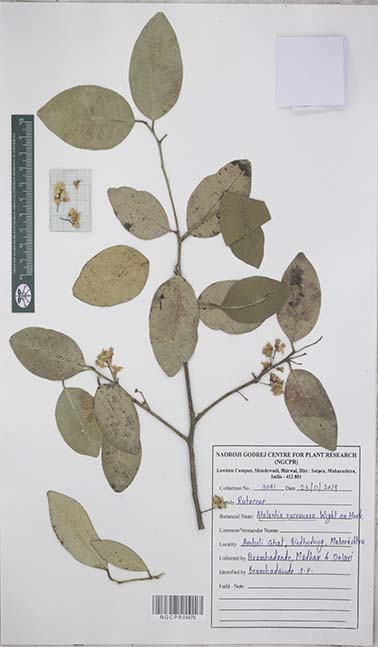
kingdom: Plantae
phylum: Tracheophyta
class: Magnoliopsida
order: Sapindales
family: Rutaceae
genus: Atalantia
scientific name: Atalantia racemosa
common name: Bombay atalantia
